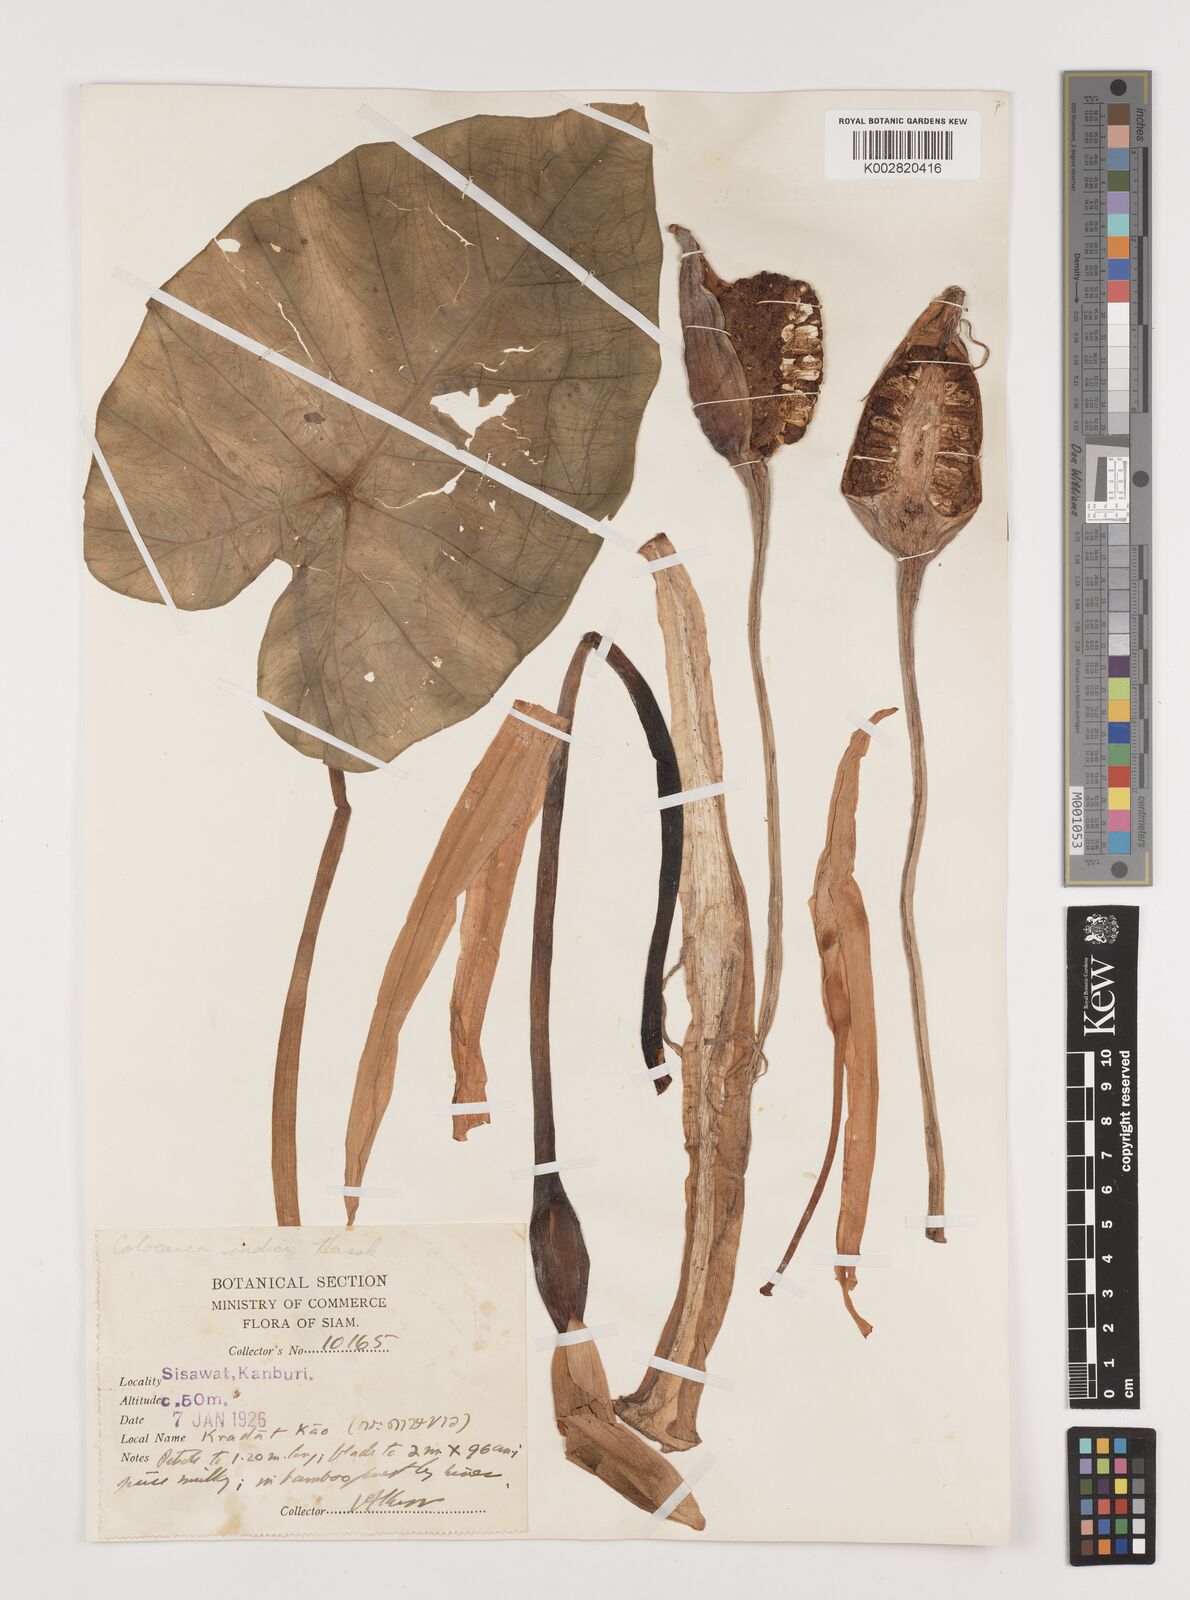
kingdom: Plantae
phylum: Tracheophyta
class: Liliopsida
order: Alismatales
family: Araceae
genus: Colocasia
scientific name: Colocasia esculenta
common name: Taro
